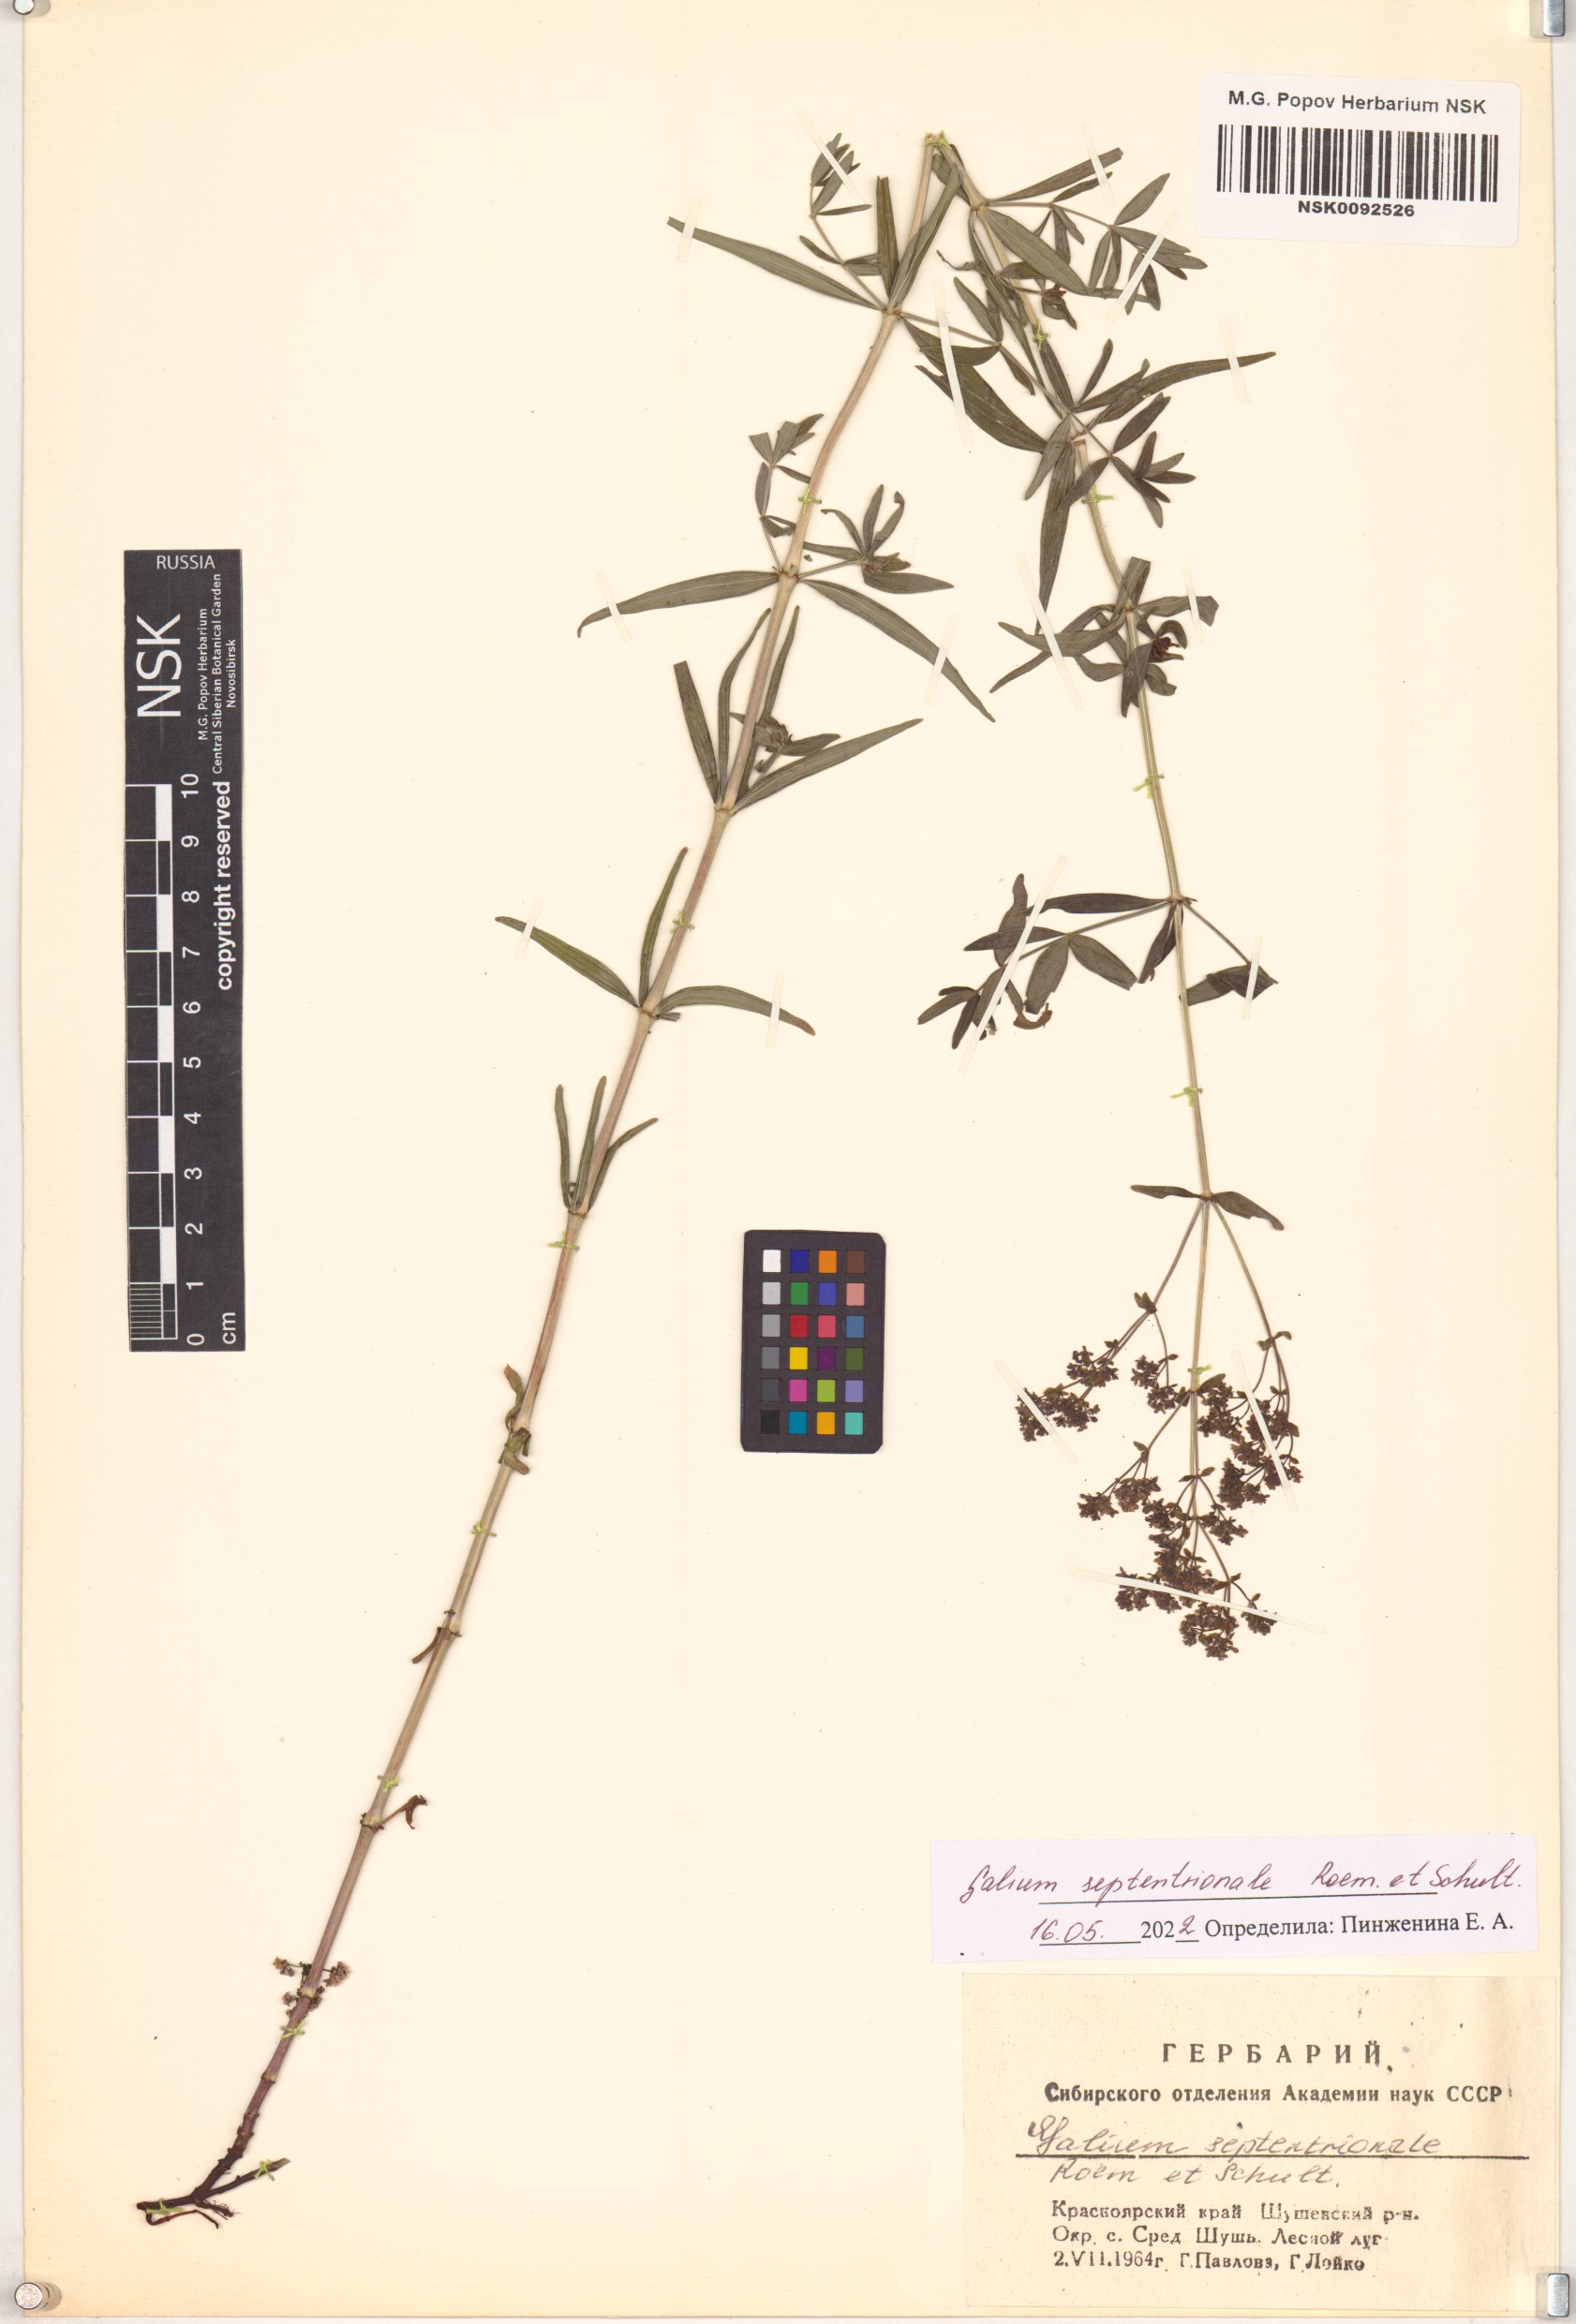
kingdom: Plantae
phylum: Tracheophyta
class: Magnoliopsida
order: Gentianales
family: Rubiaceae
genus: Galium
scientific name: Galium boreale
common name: Northern bedstraw
